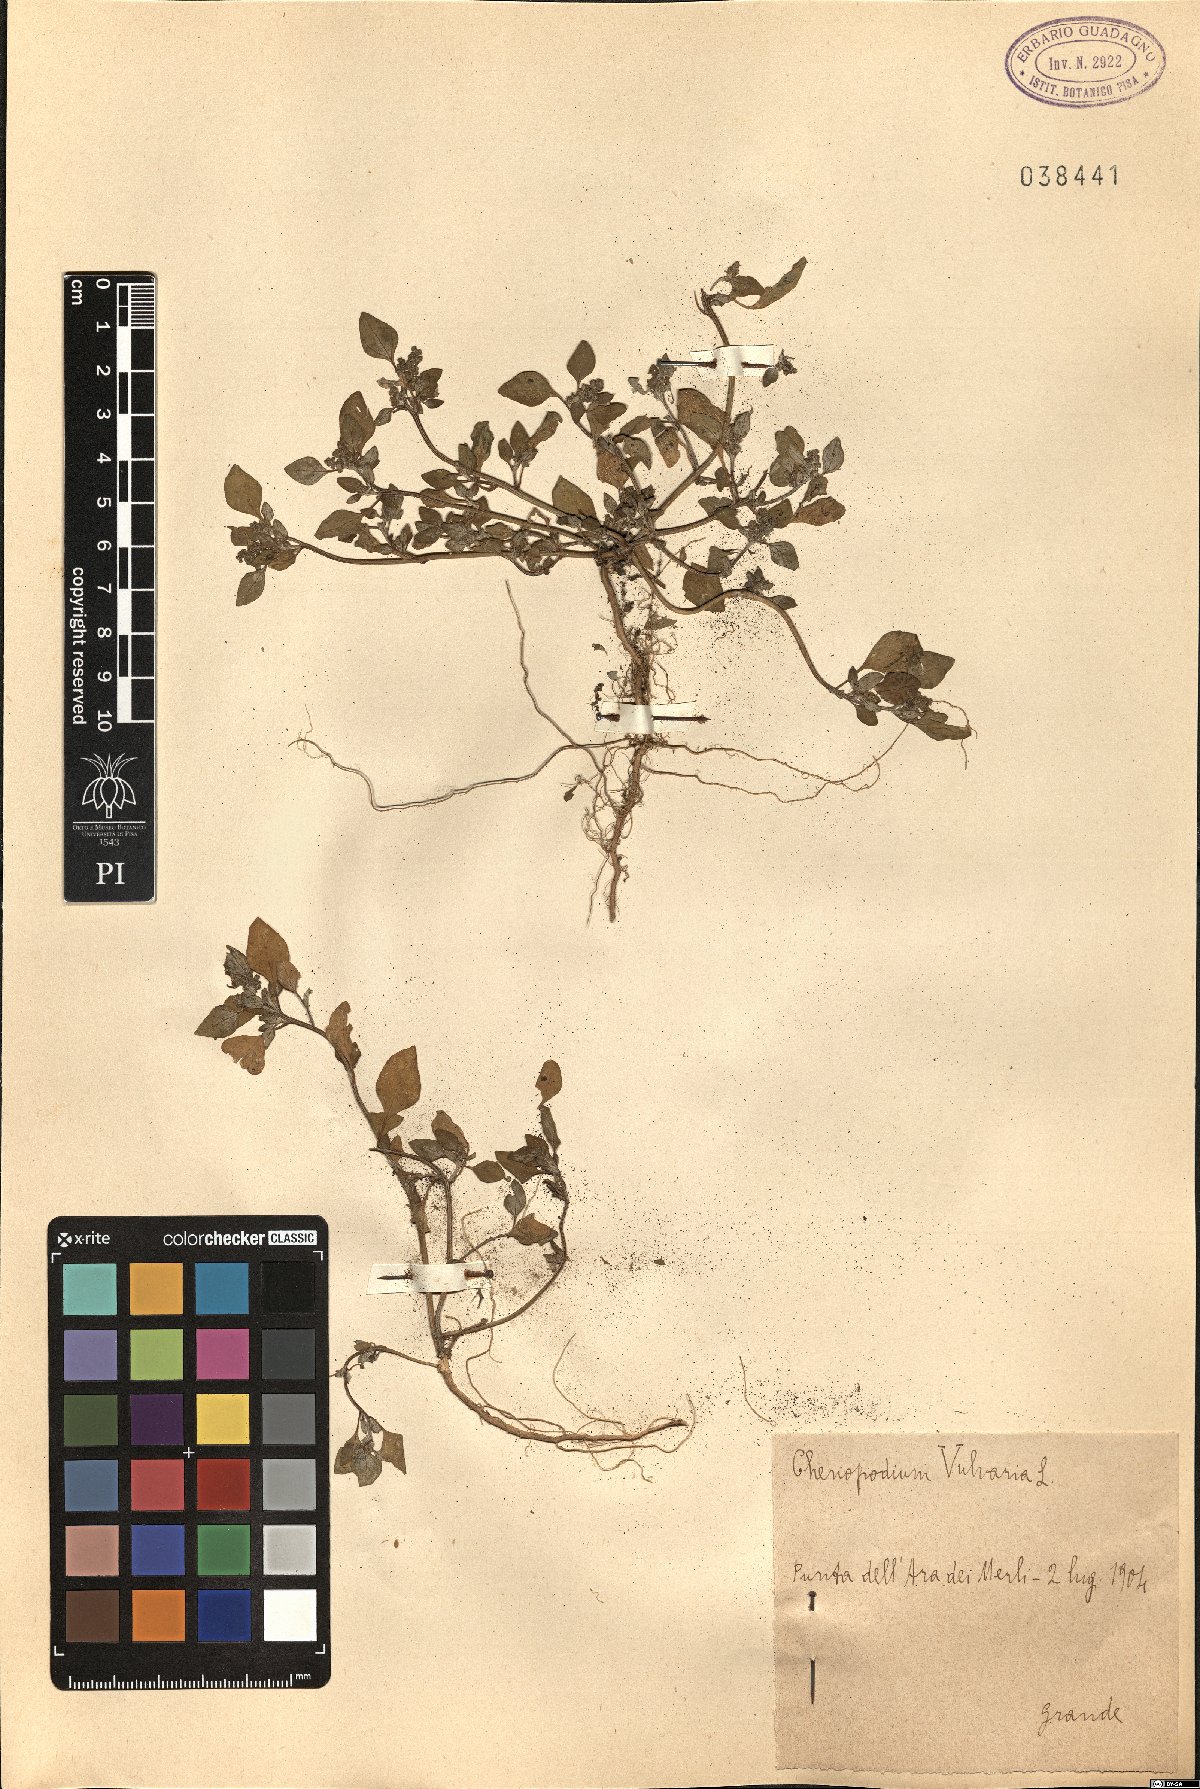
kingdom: Plantae
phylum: Tracheophyta
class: Magnoliopsida
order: Caryophyllales
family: Amaranthaceae
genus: Chenopodium
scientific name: Chenopodium vulvaria
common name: Stinking goosefoot
